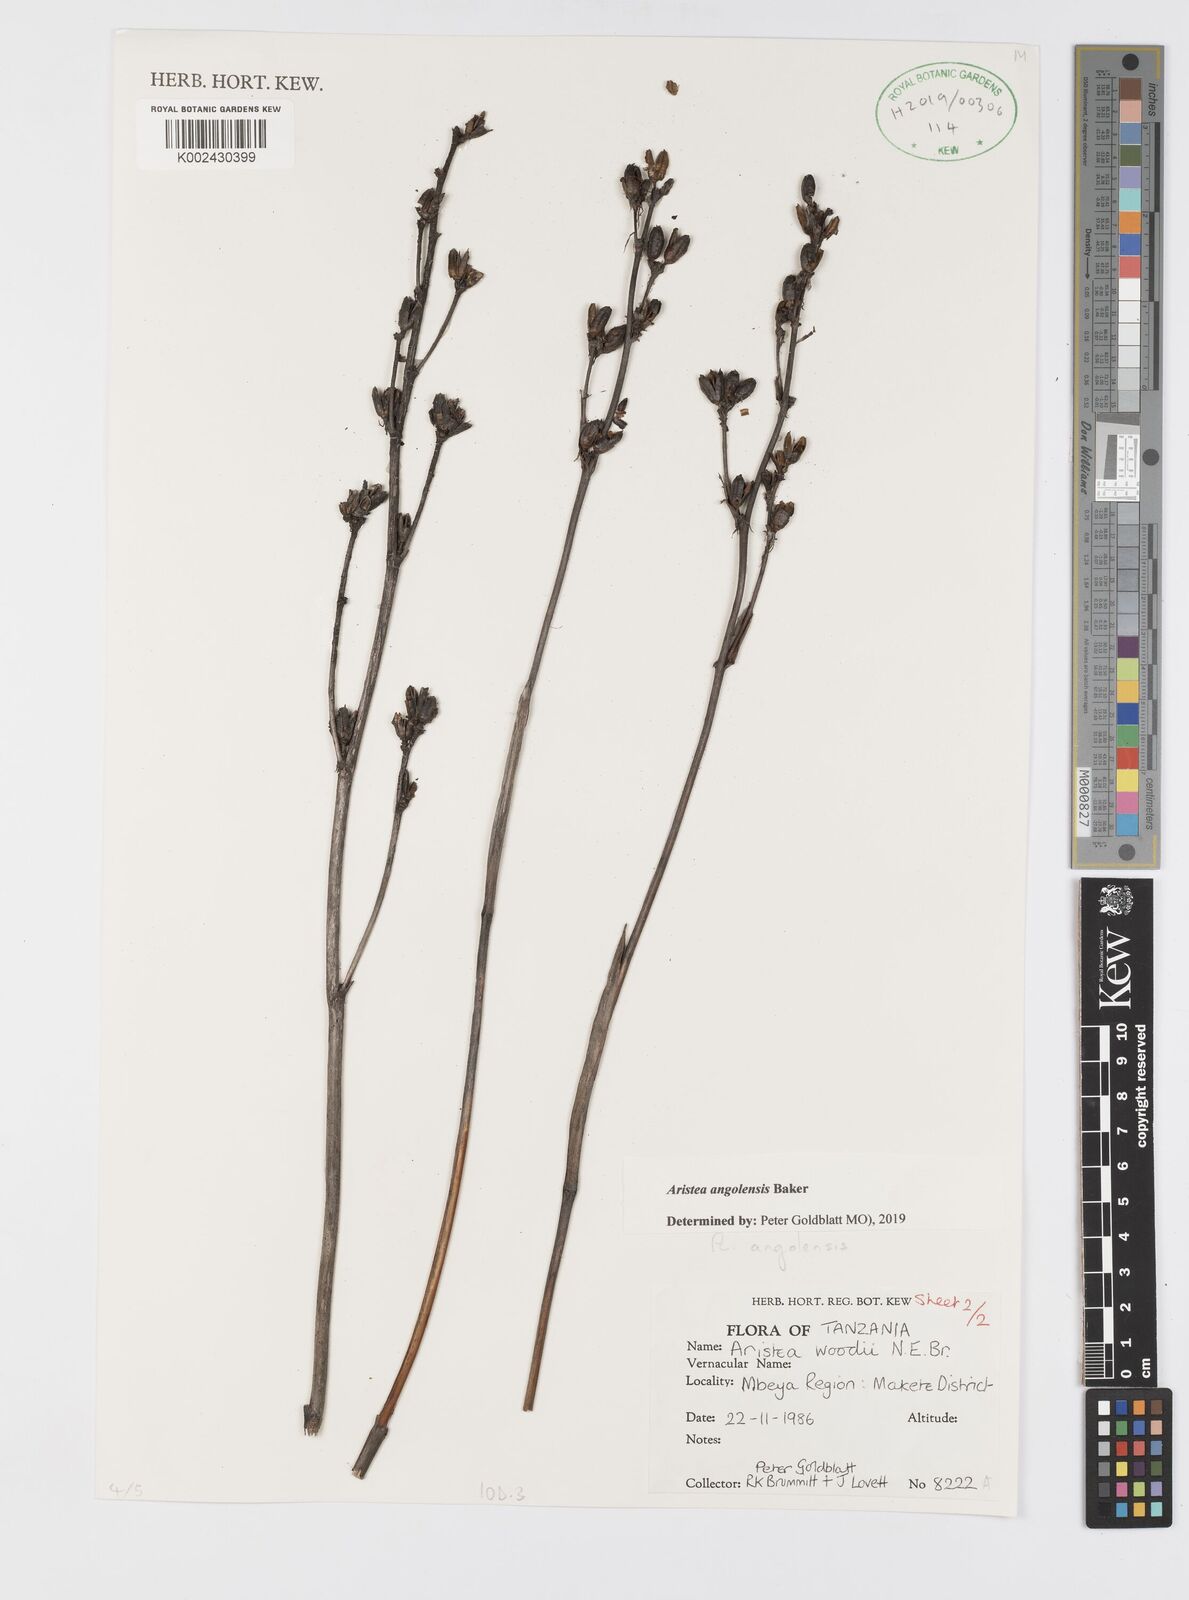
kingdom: Plantae
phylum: Tracheophyta
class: Liliopsida
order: Asparagales
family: Iridaceae
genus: Aristea
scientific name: Aristea angolensis
